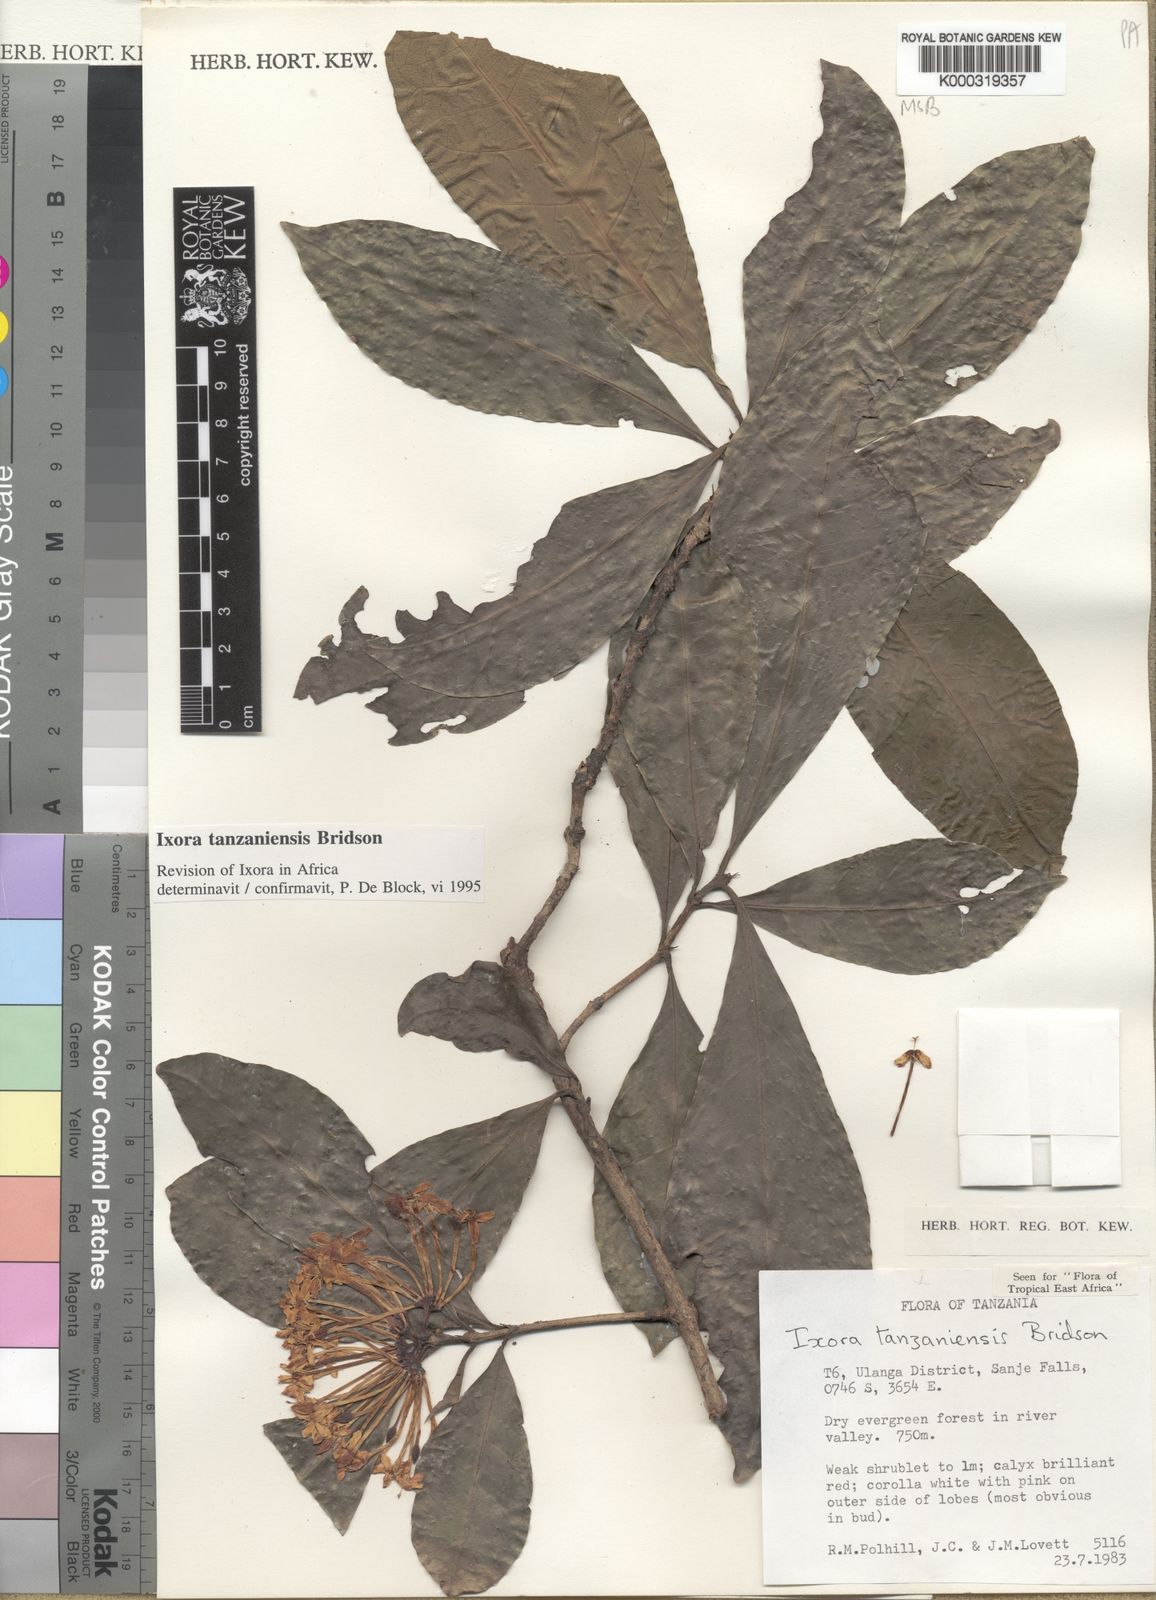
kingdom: Plantae
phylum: Tracheophyta
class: Magnoliopsida
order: Gentianales
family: Rubiaceae
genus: Ixora
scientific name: Ixora tanzaniensis
